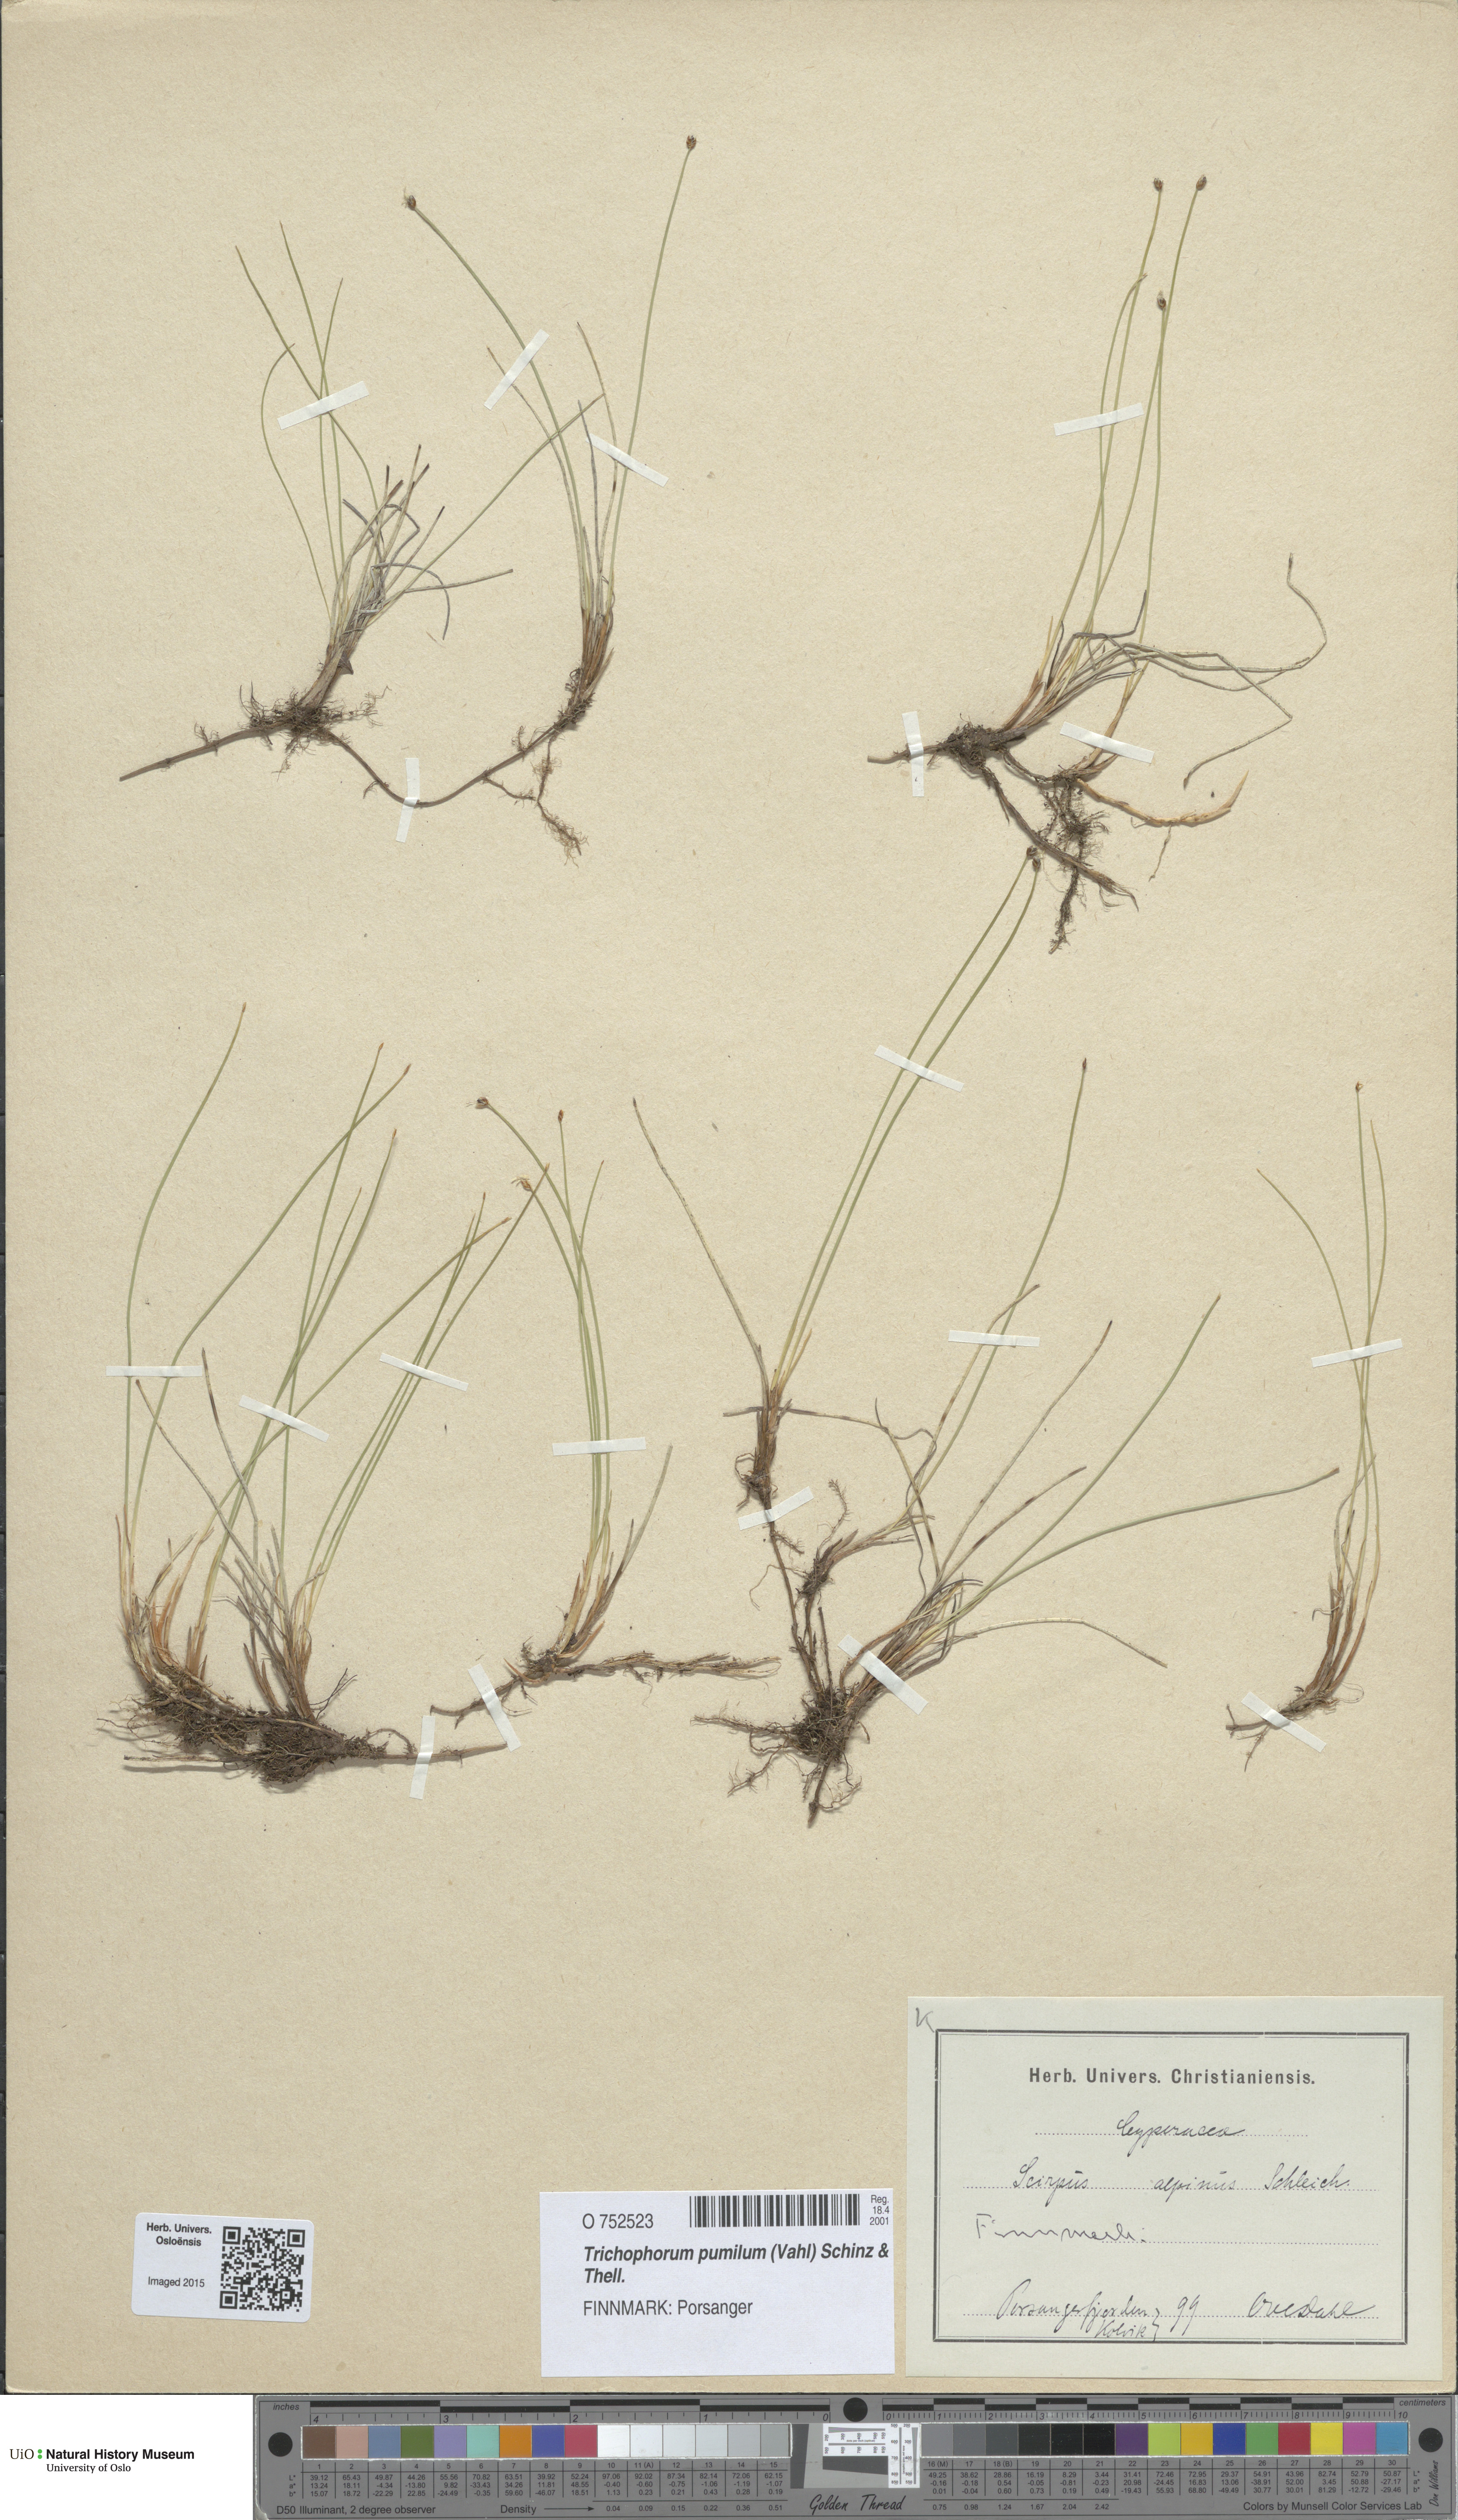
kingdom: Plantae
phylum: Tracheophyta
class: Liliopsida
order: Poales
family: Cyperaceae
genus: Trichophorum
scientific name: Trichophorum pumilum
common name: Rolland's bulrush
